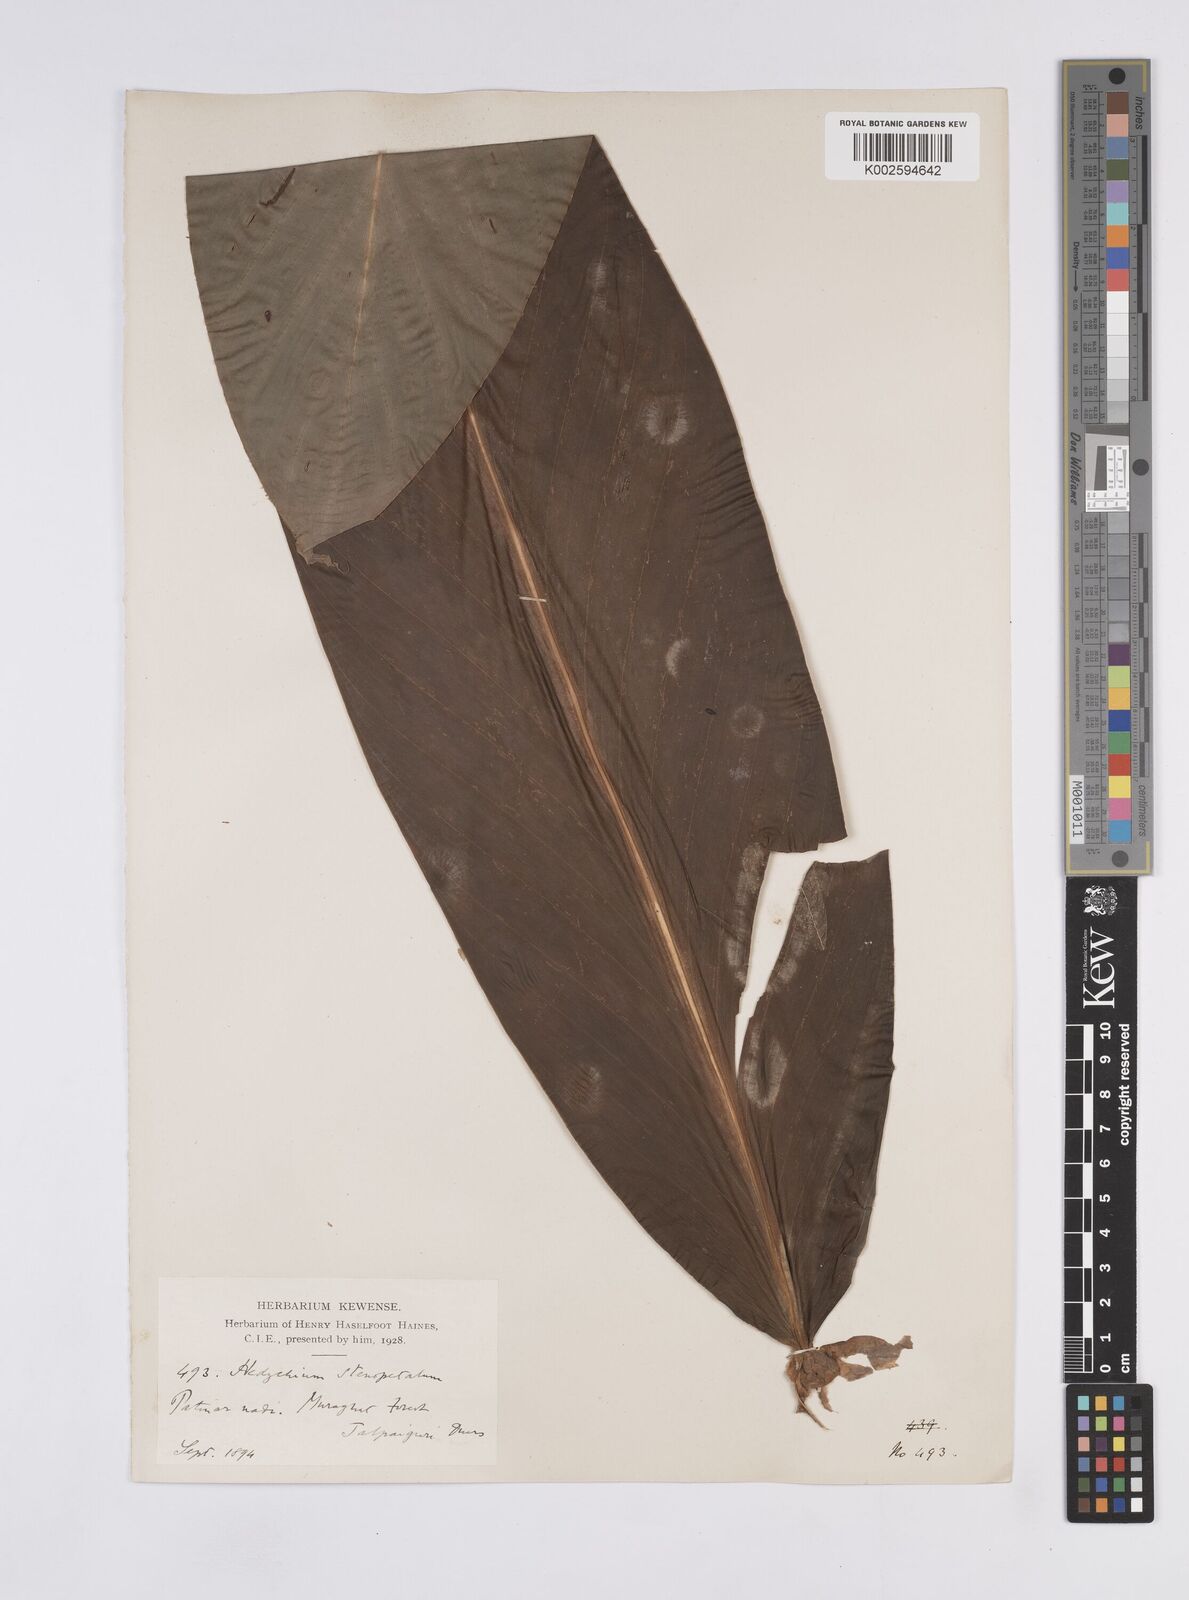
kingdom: Plantae
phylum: Tracheophyta
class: Liliopsida
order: Zingiberales
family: Zingiberaceae
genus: Hedychium
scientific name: Hedychium stenopetalum
